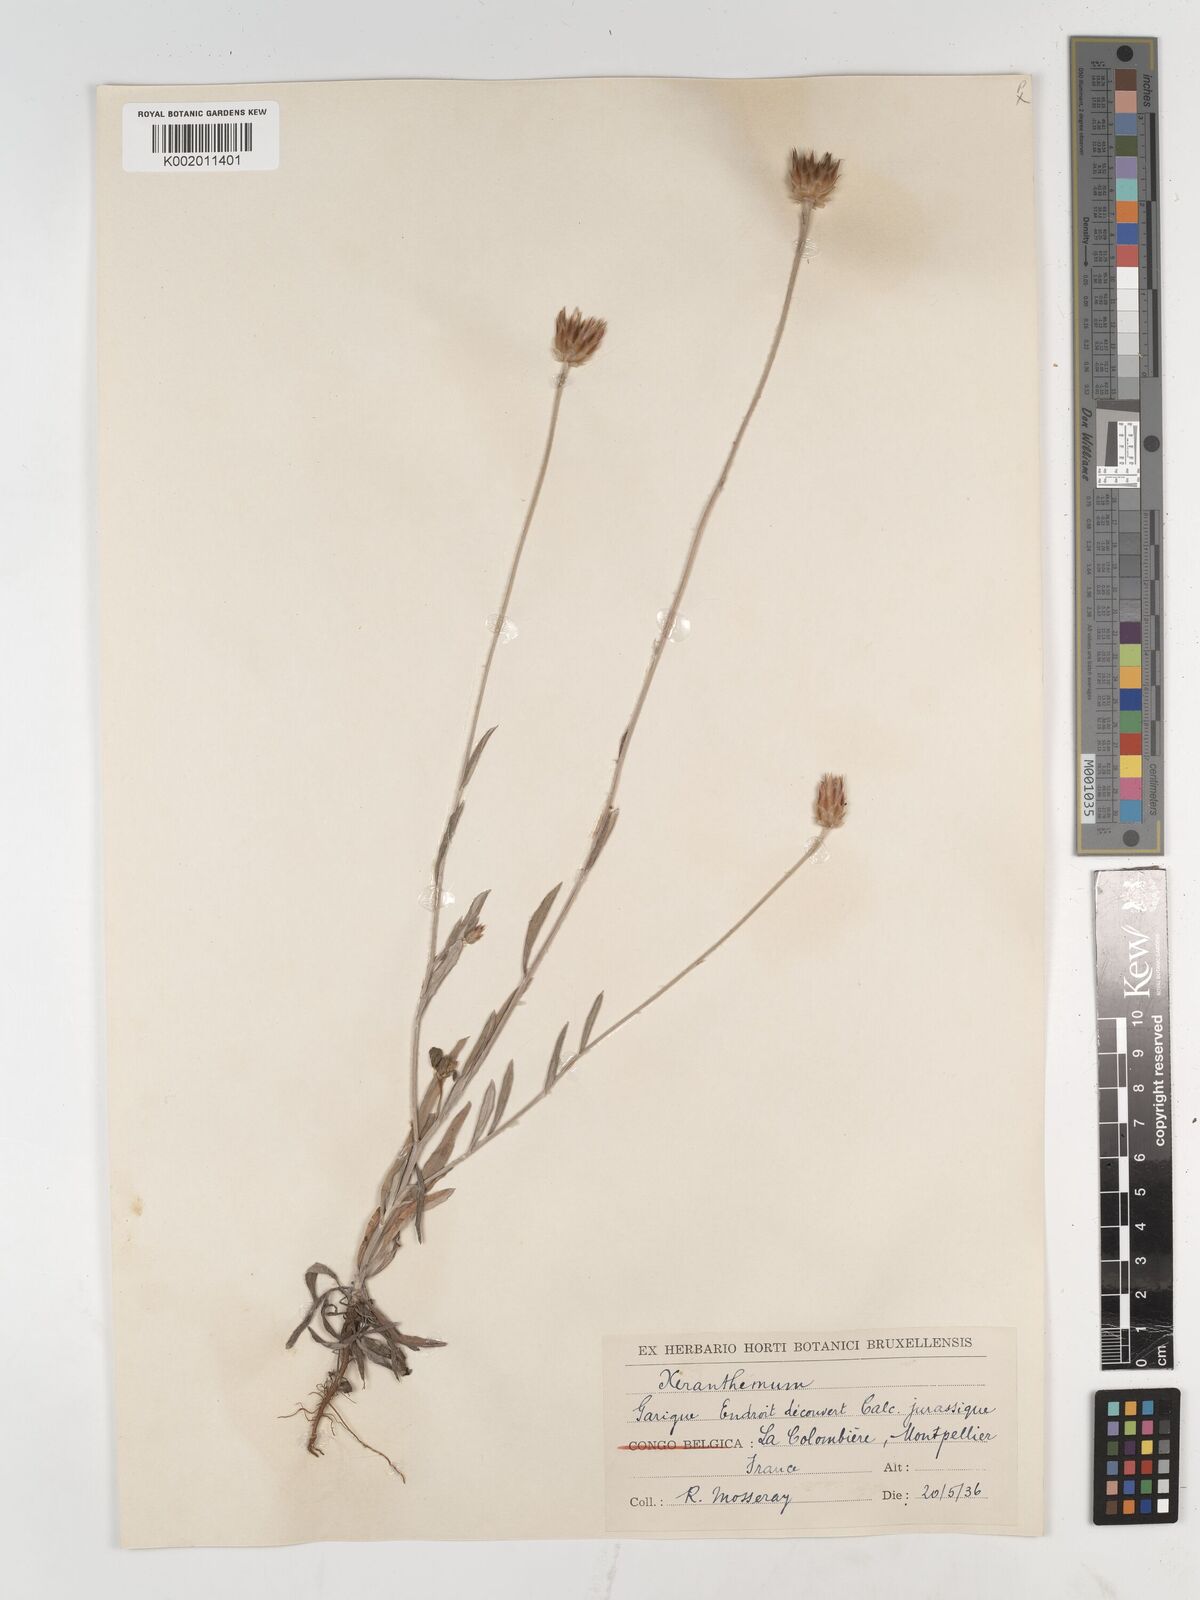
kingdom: Plantae
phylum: Tracheophyta
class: Magnoliopsida
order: Asterales
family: Asteraceae
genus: Xeranthemum
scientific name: Xeranthemum inapertum
